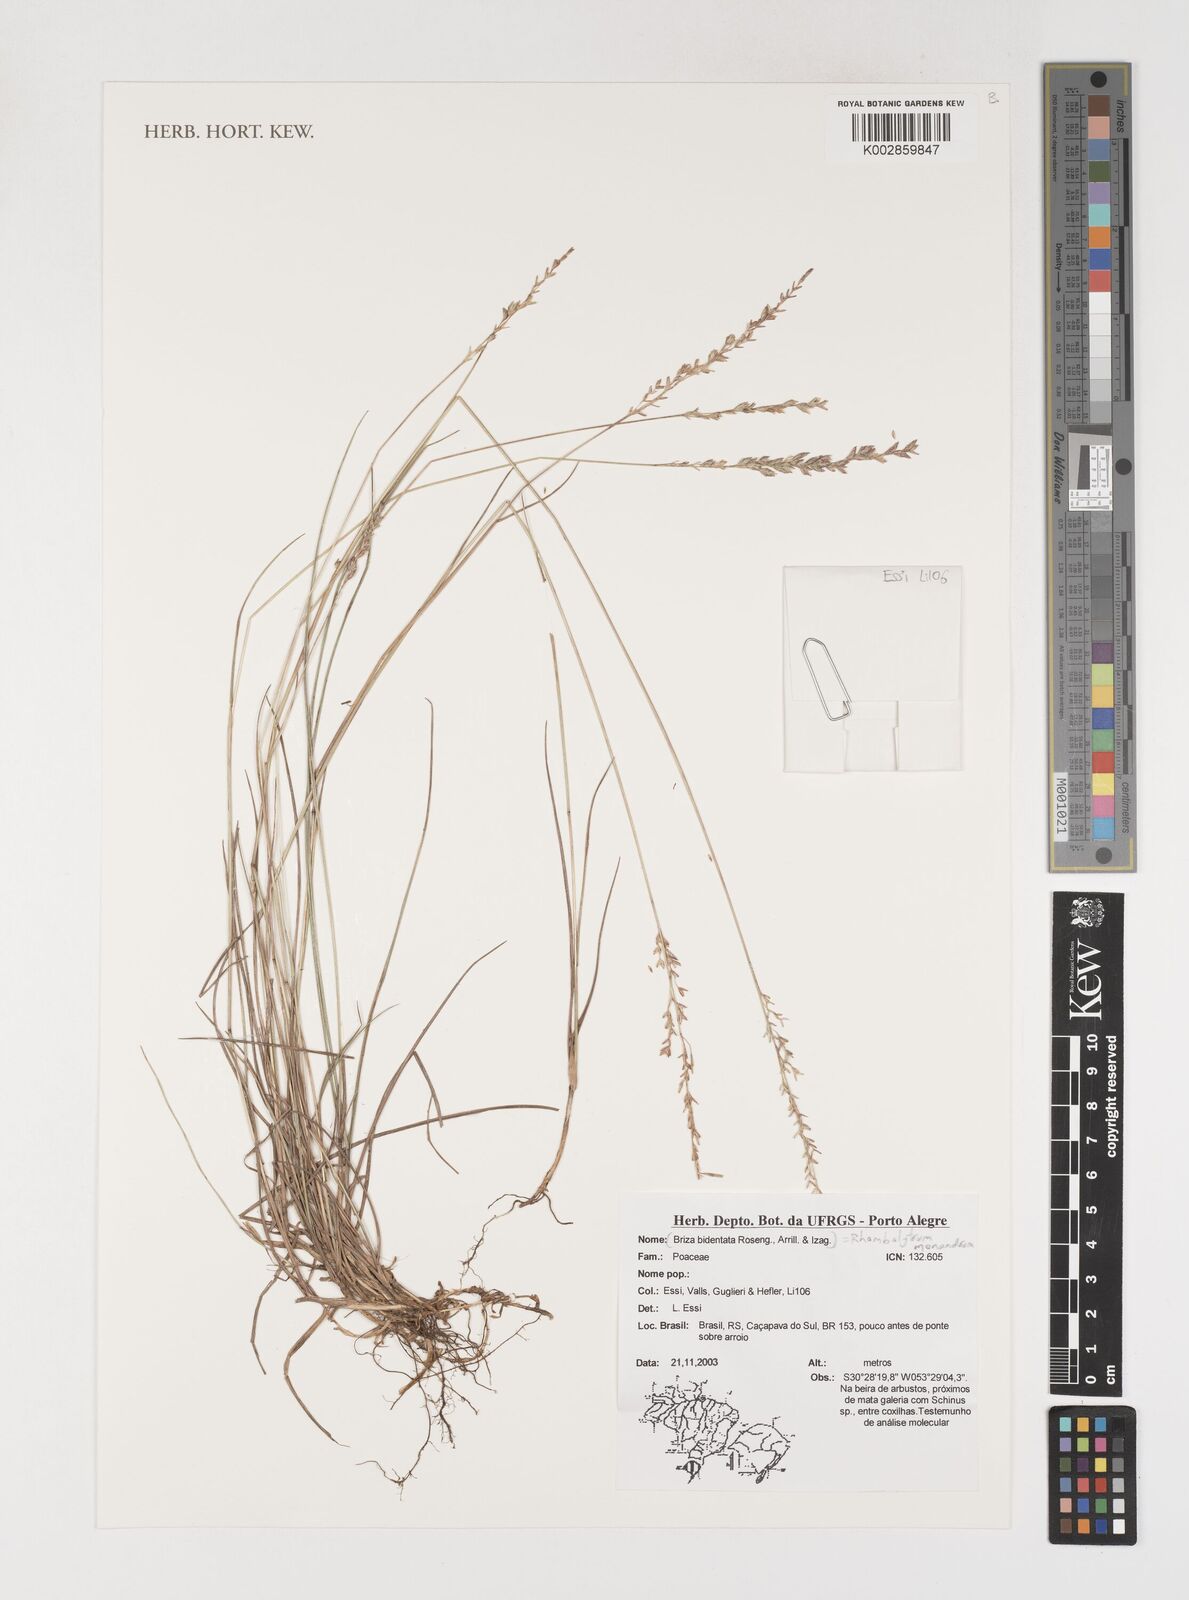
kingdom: Plantae
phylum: Tracheophyta
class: Liliopsida
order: Poales
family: Poaceae
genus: Rhombolytrum
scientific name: Rhombolytrum monandrum
